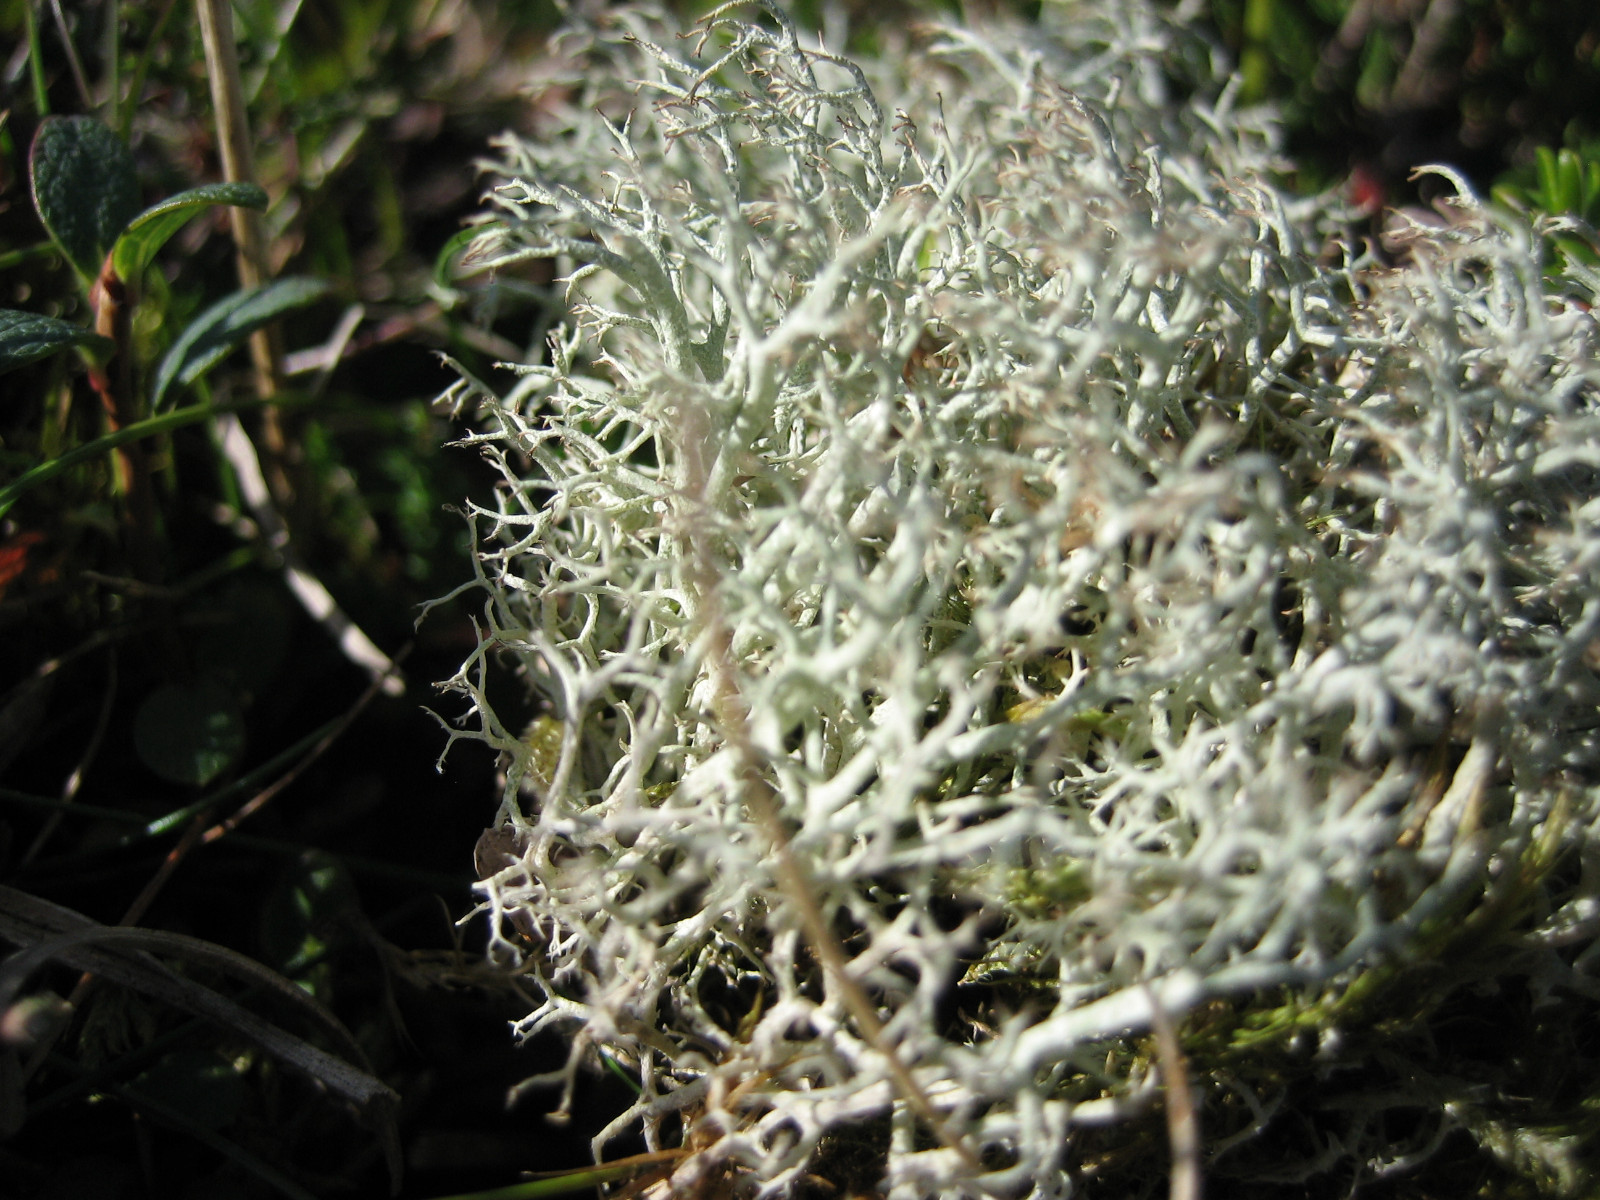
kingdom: Fungi
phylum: Ascomycota
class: Lecanoromycetes
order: Lecanorales
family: Cladoniaceae
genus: Cladonia
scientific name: Cladonia ciliata
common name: spinkel rensdyrlav
